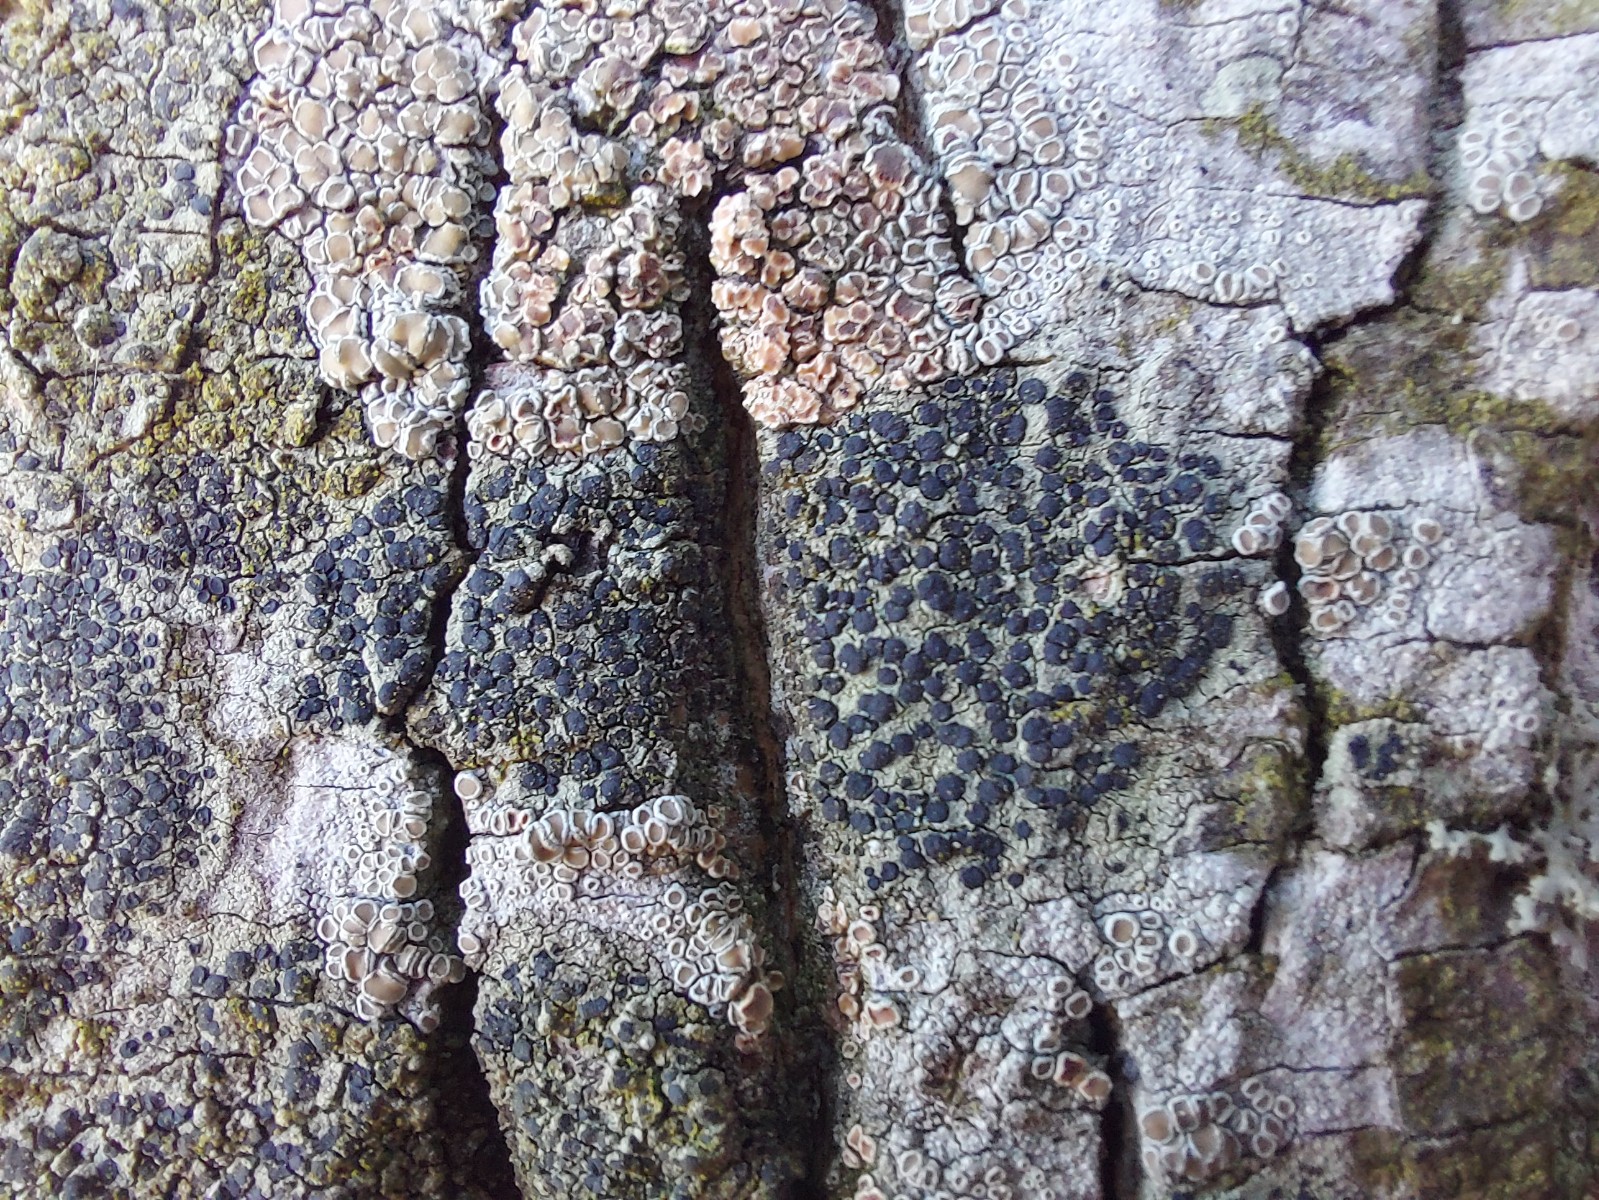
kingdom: Fungi
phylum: Ascomycota
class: Lecanoromycetes
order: Lecanorales
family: Lecanoraceae
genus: Lecidella
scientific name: Lecidella elaeochroma
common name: grågrøn skivelav
